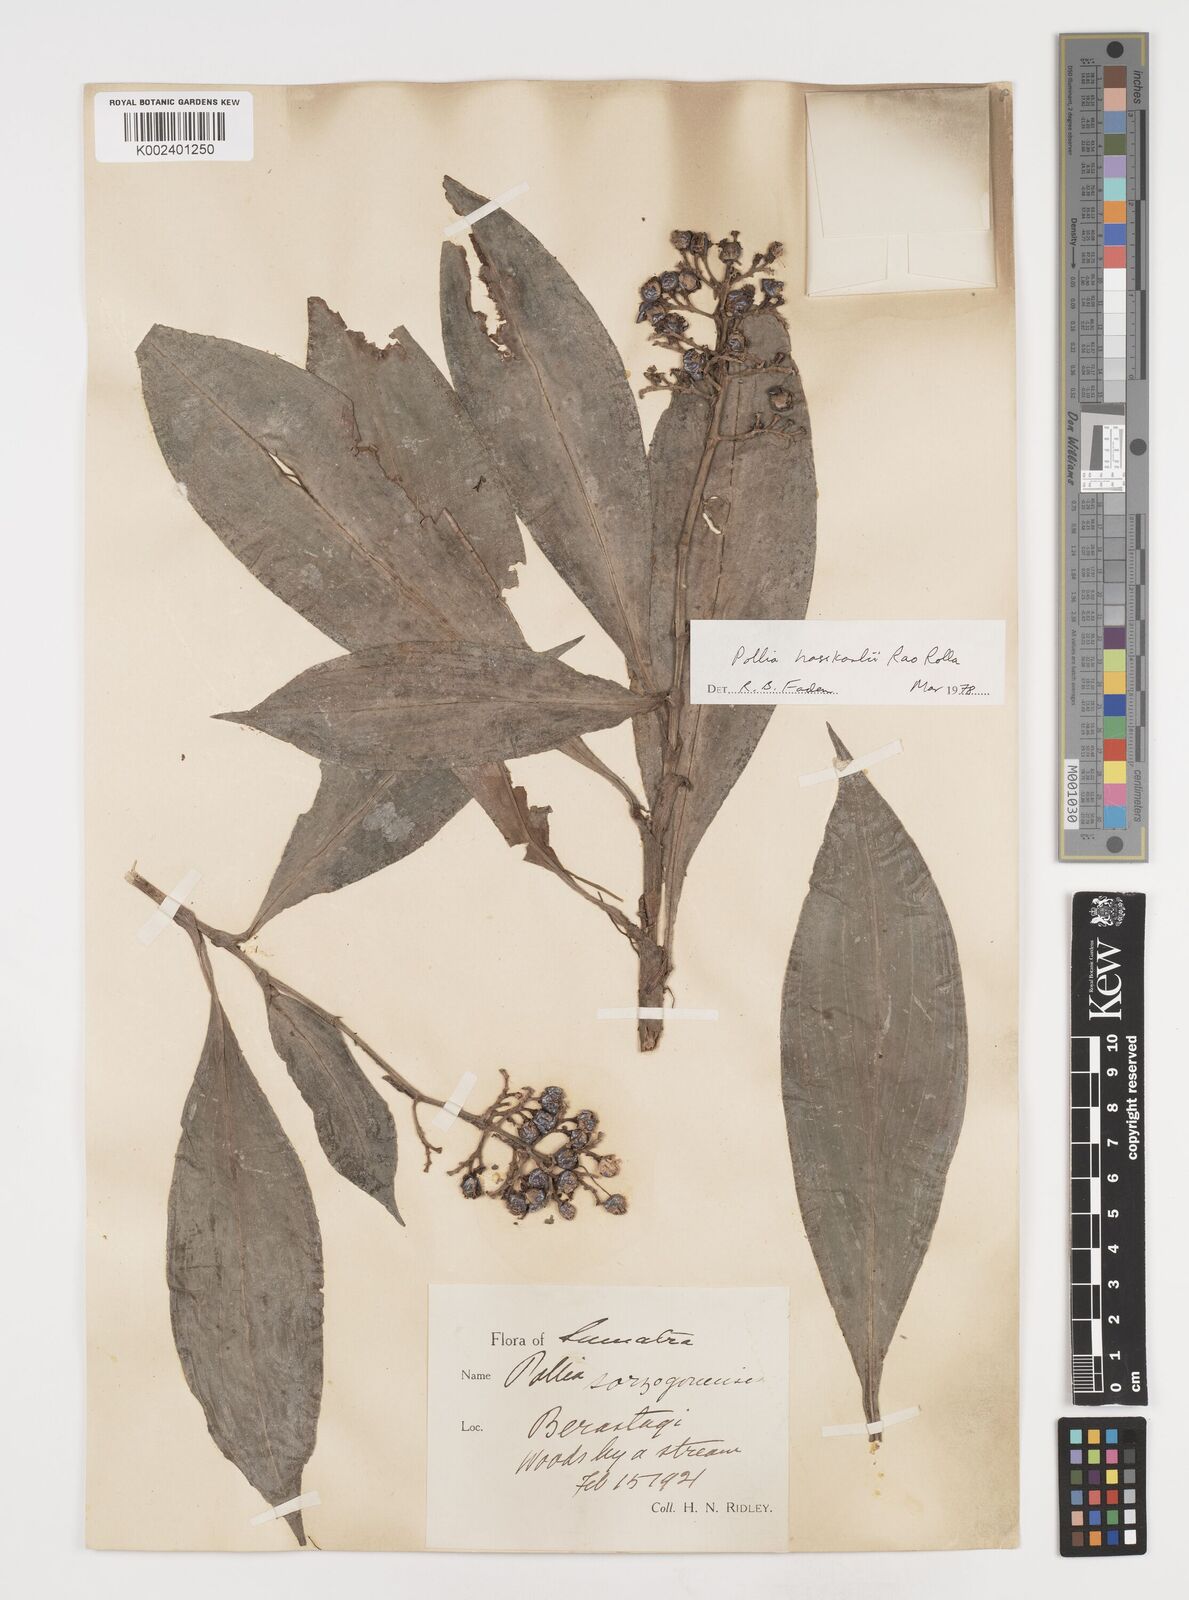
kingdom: Plantae
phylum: Tracheophyta
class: Liliopsida
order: Commelinales
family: Commelinaceae
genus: Pollia
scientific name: Pollia hasskarlii
